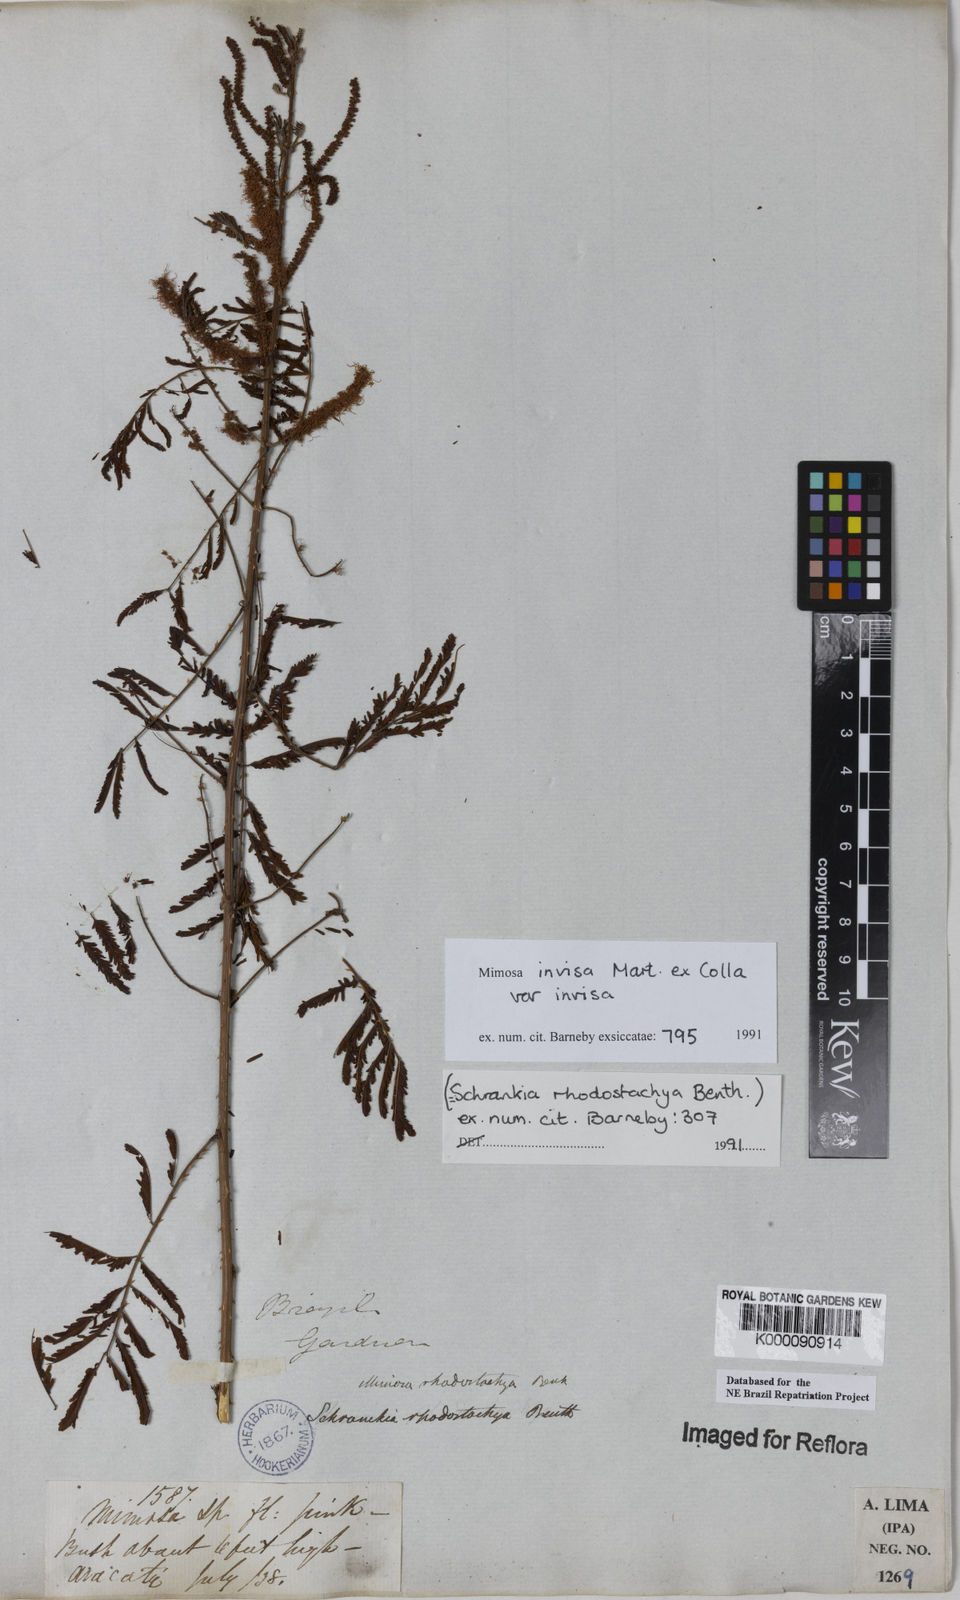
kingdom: Plantae
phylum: Tracheophyta
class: Magnoliopsida
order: Fabales
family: Fabaceae
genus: Mimosa
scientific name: Mimosa invisa
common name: Creeping sensitive-plant
